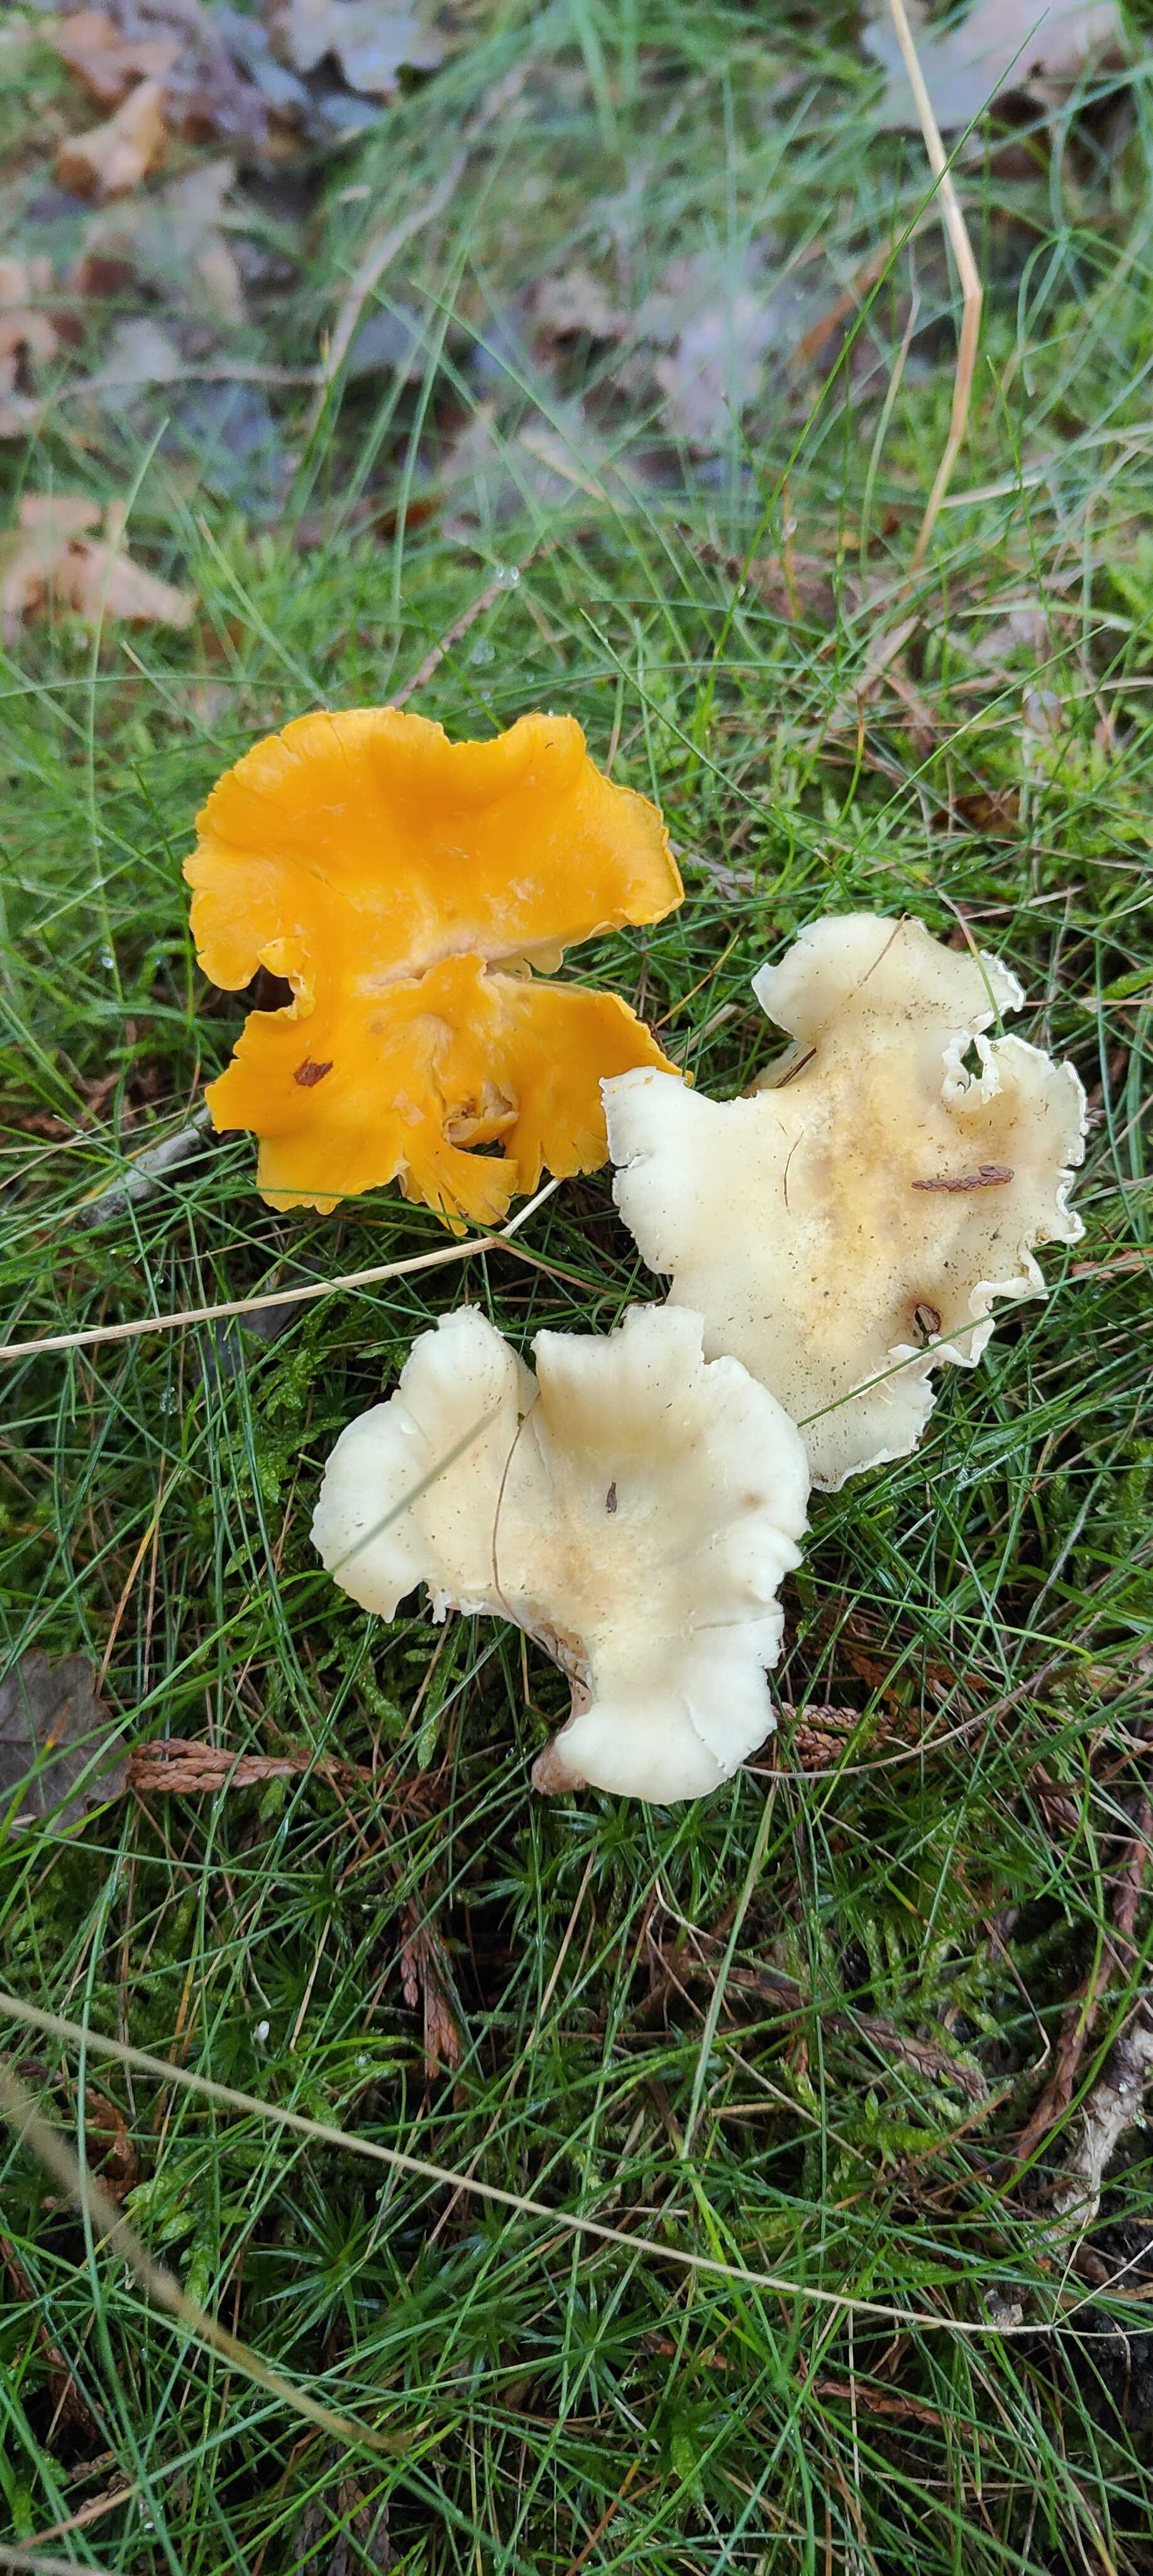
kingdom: Fungi
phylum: Basidiomycota
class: Agaricomycetes
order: Cantharellales
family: Hydnaceae
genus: Cantharellus
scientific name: Cantharellus cibarius
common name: almindelig kantarel
